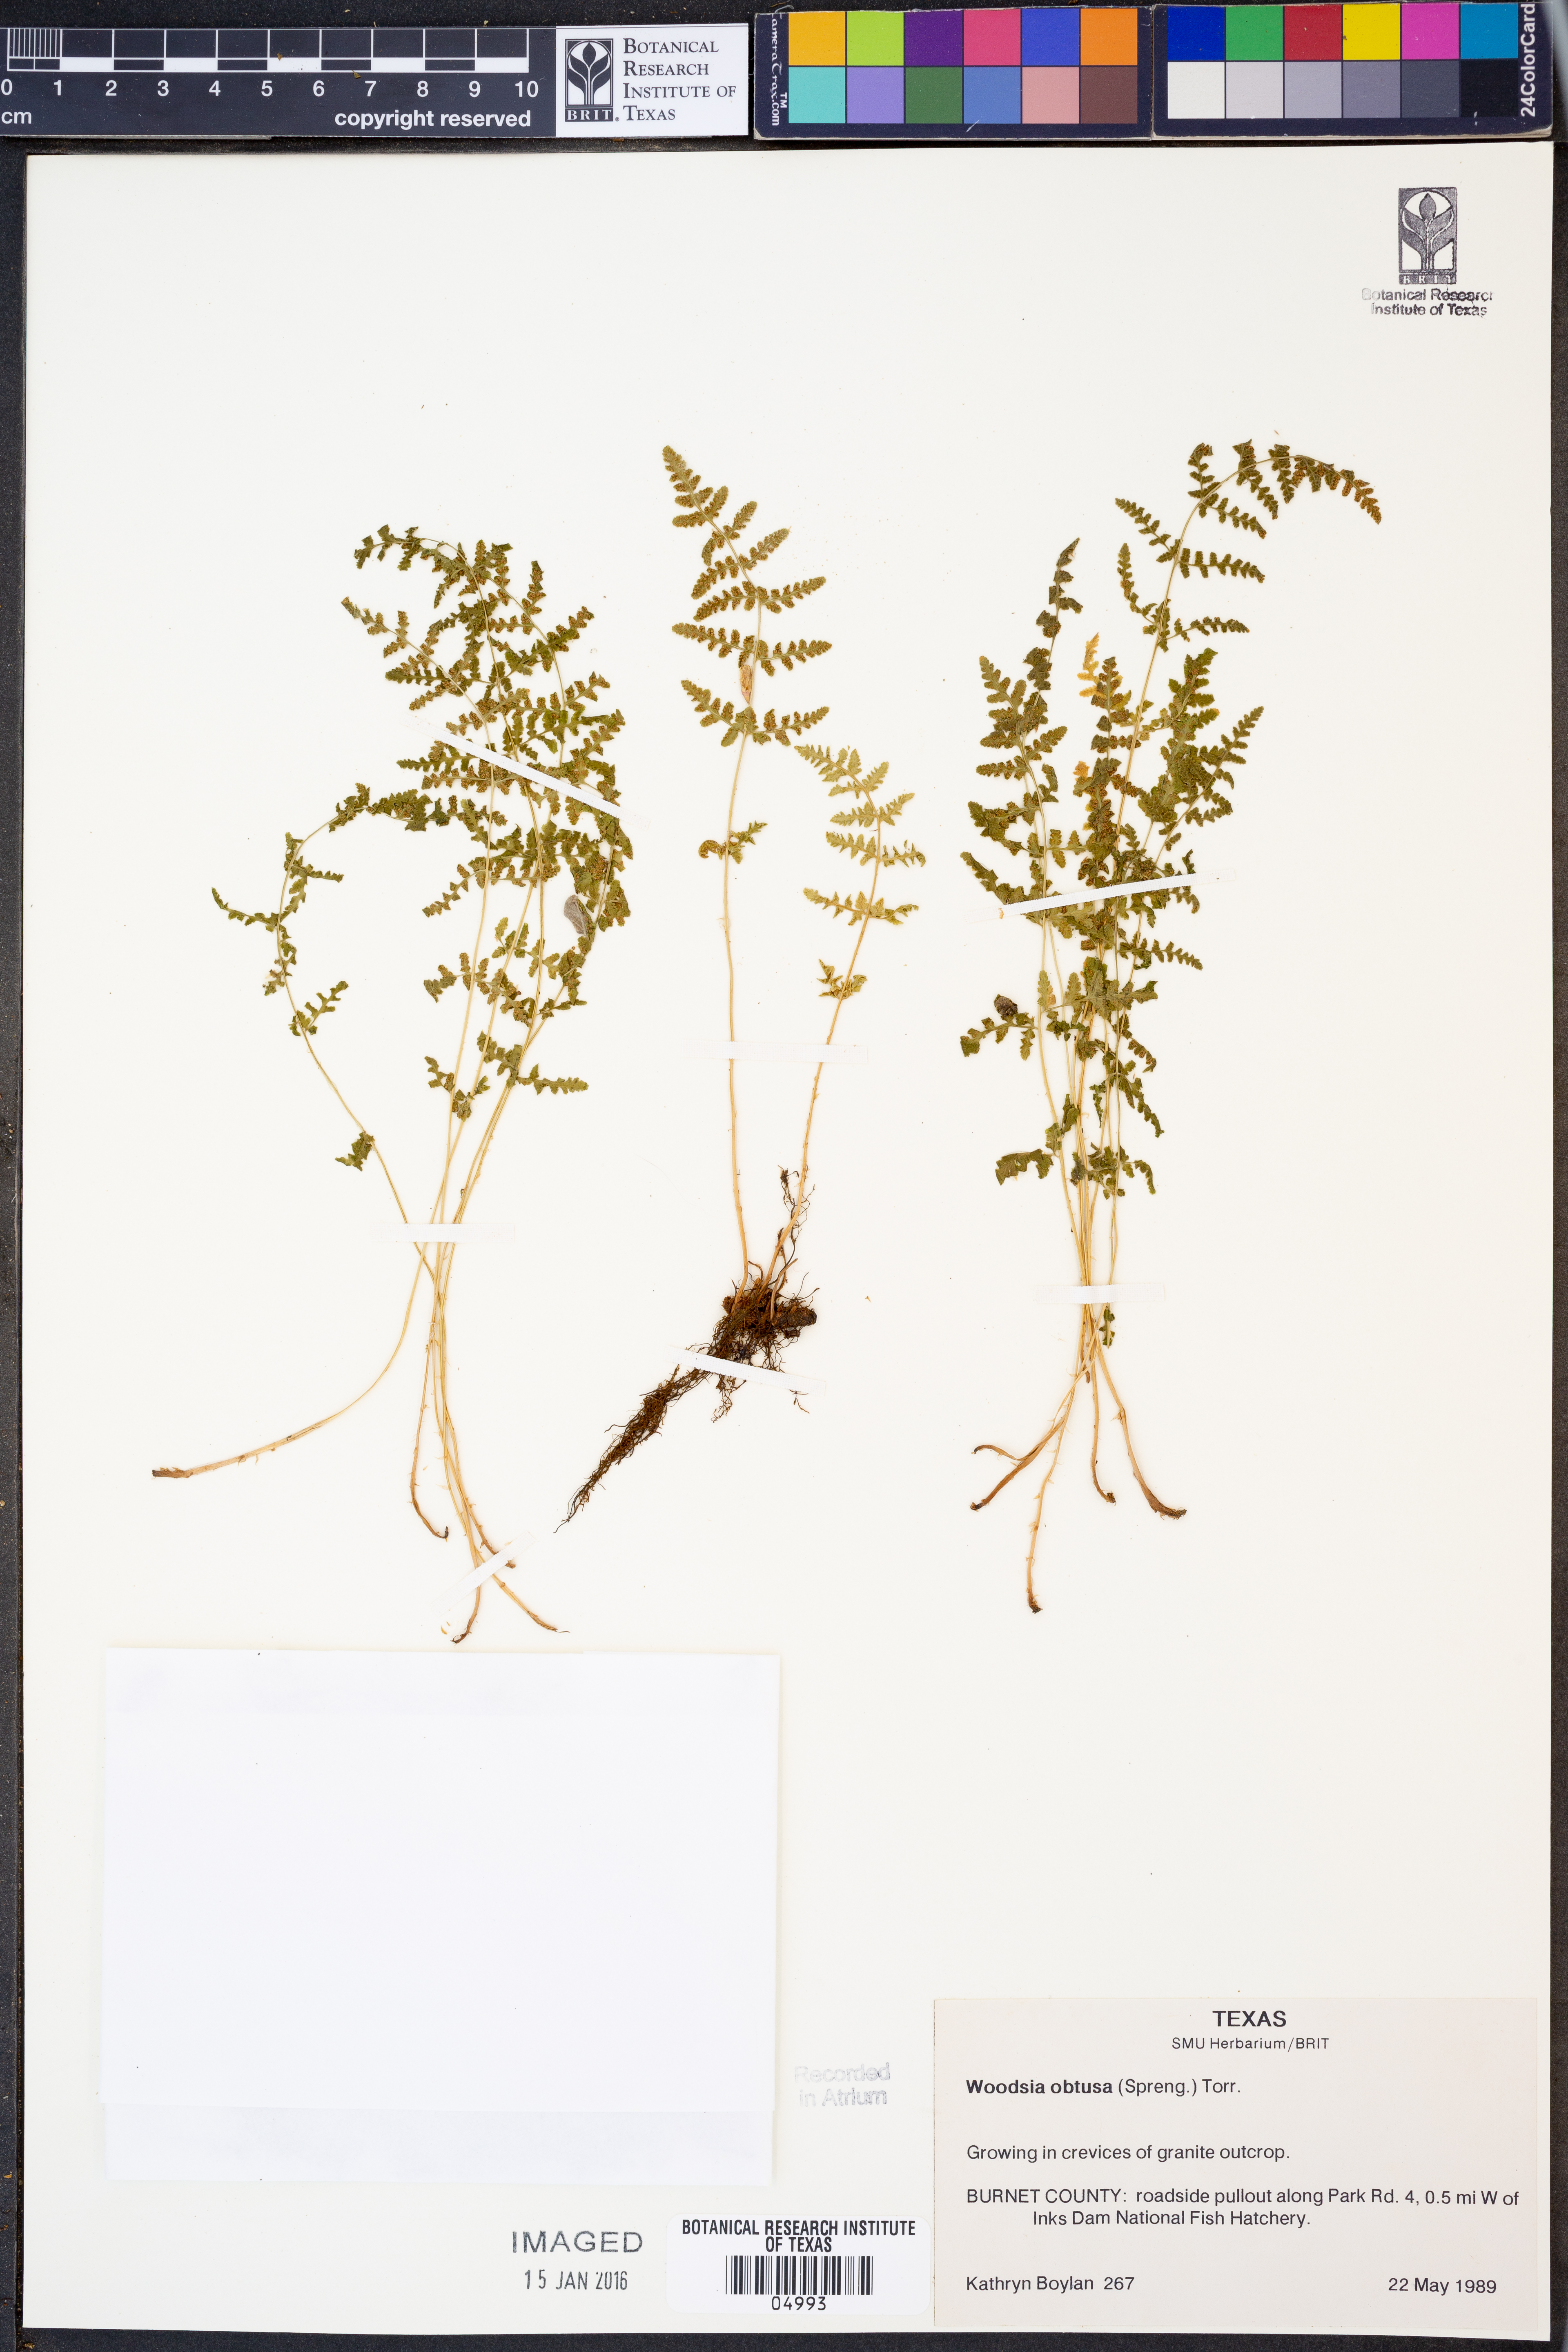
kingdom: Plantae
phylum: Tracheophyta
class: Polypodiopsida
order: Polypodiales
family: Woodsiaceae
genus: Physematium
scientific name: Physematium obtusum
